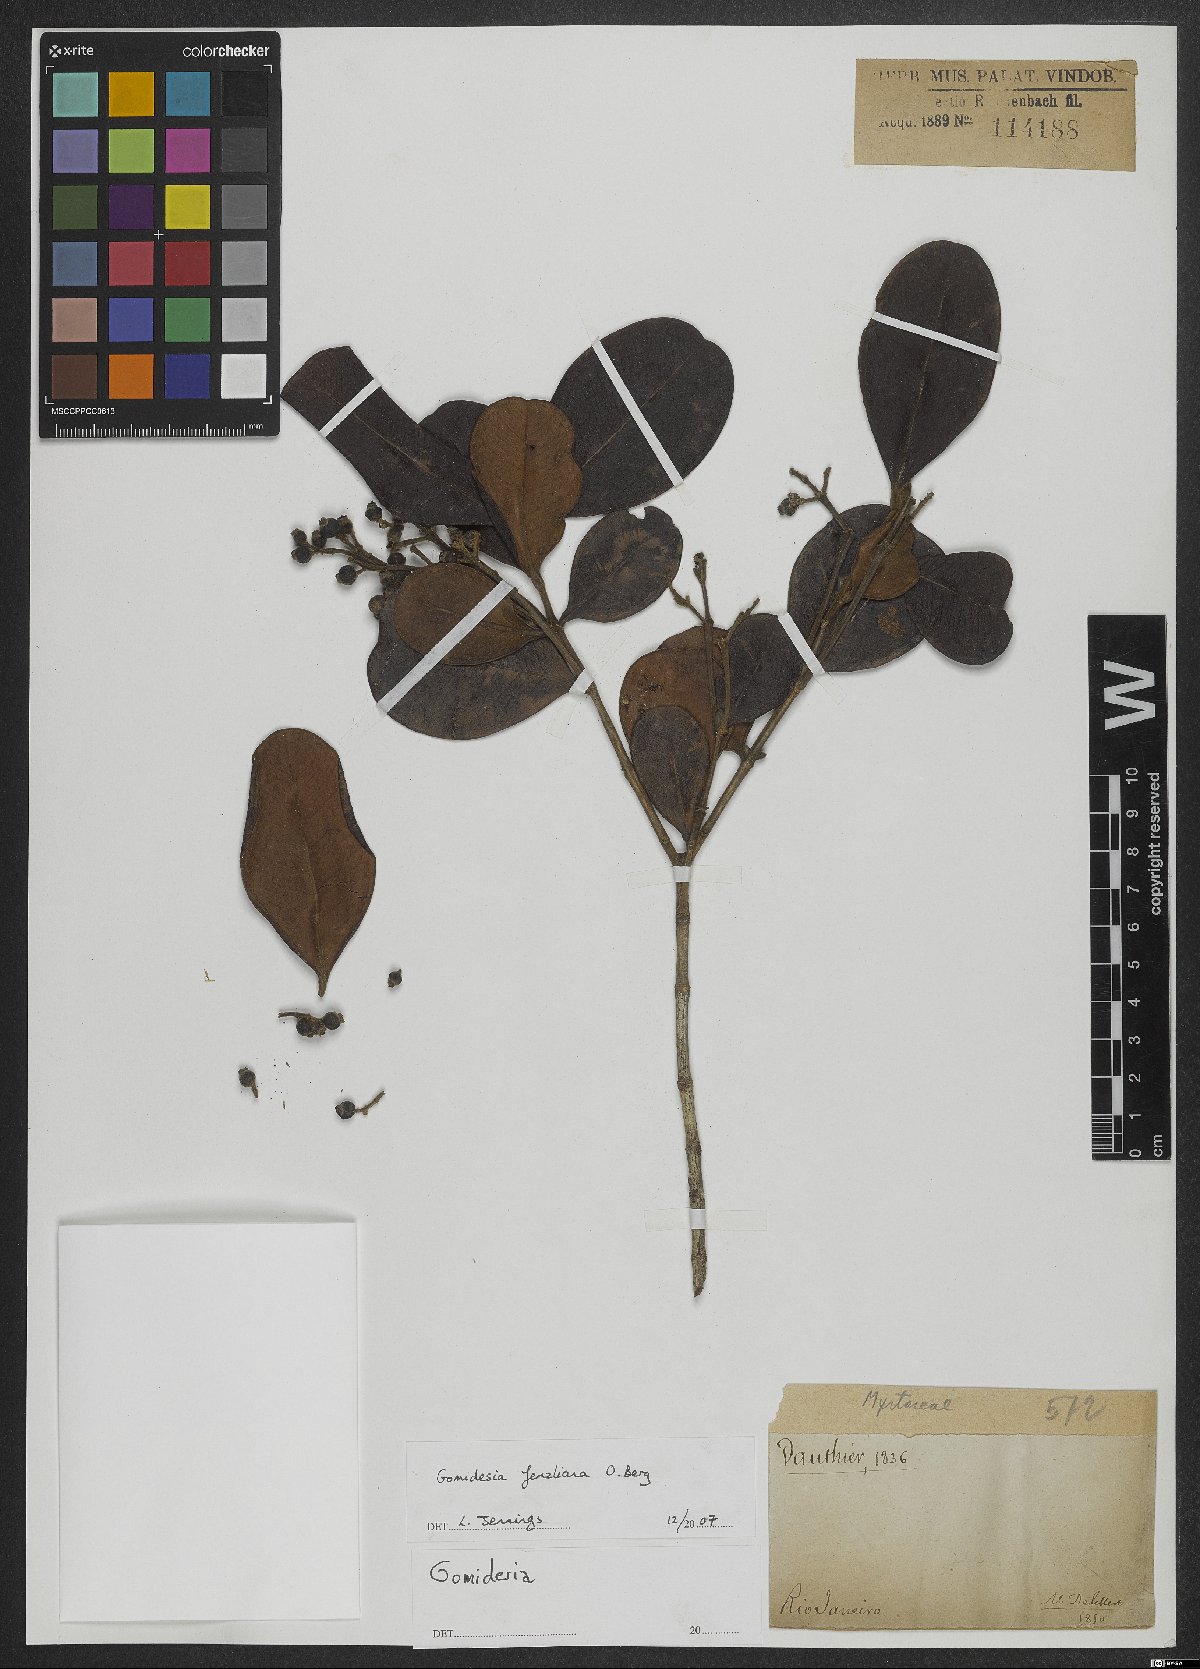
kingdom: Plantae
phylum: Tracheophyta
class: Magnoliopsida
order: Myrtales
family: Myrtaceae
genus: Myrcia
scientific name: Myrcia ilheosensis
